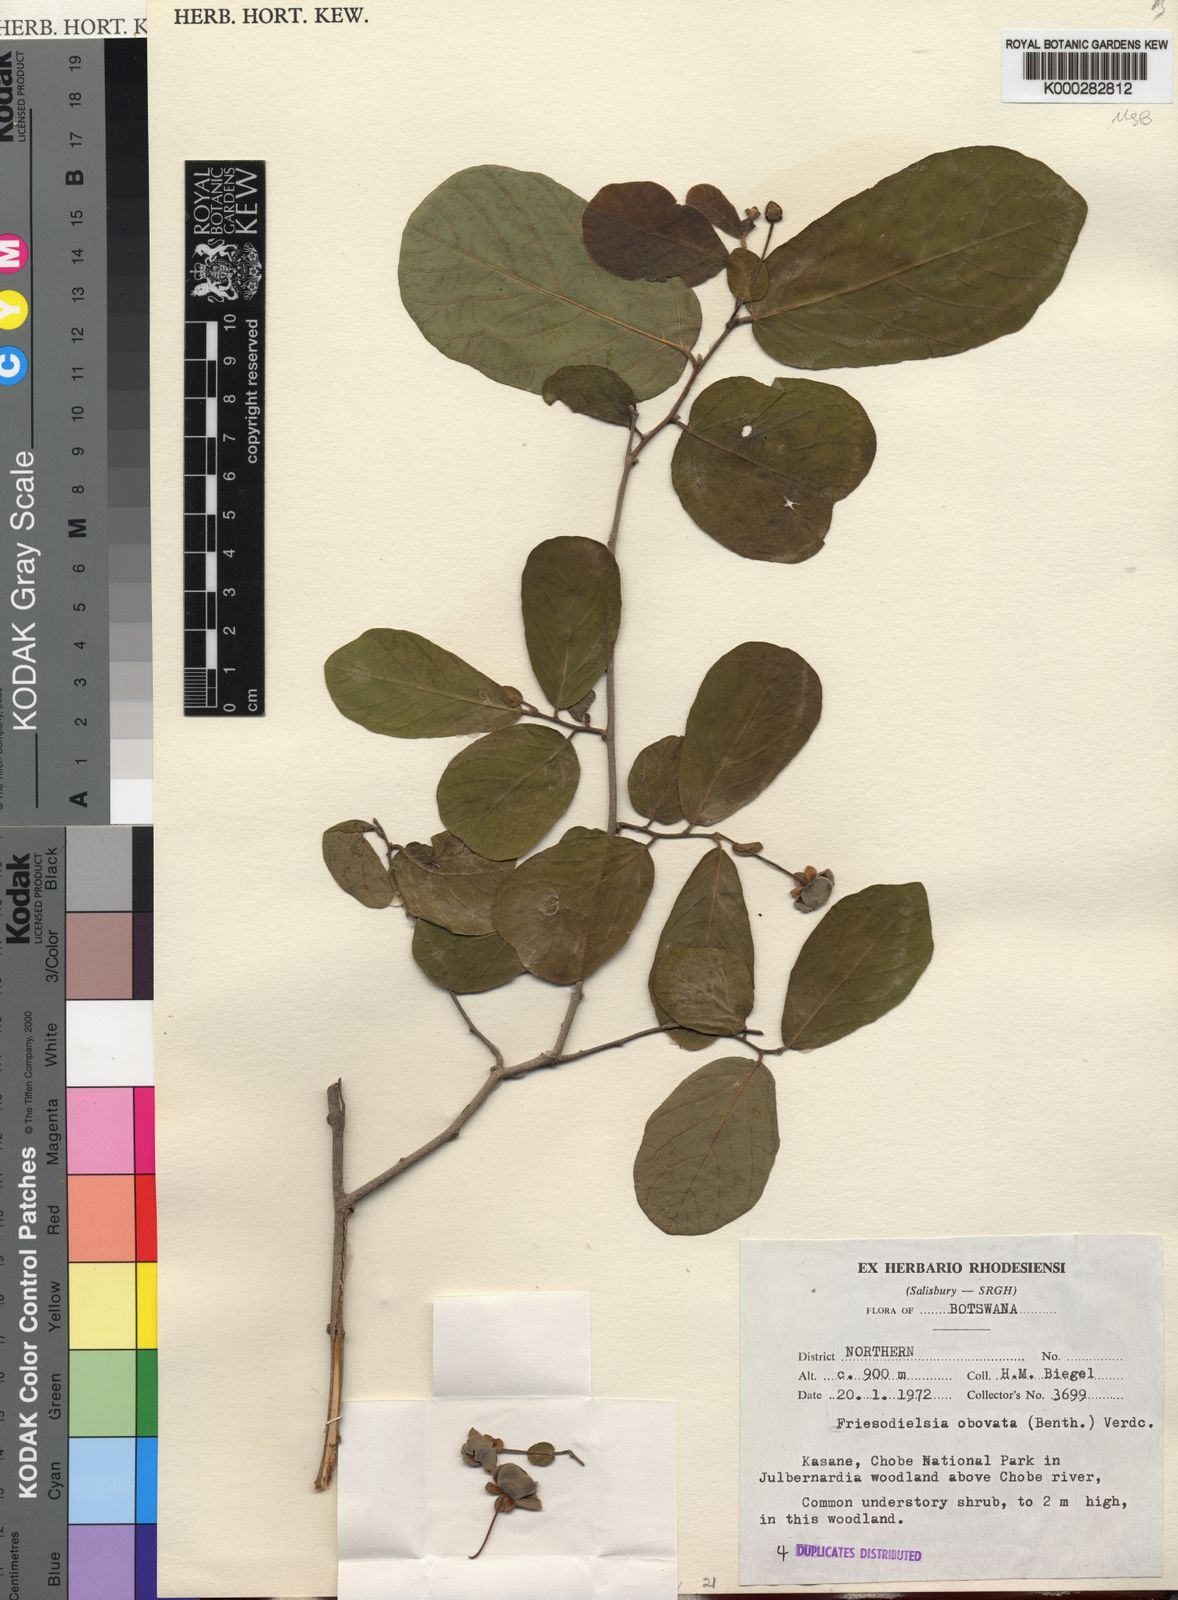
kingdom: Plantae
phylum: Tracheophyta
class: Magnoliopsida
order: Magnoliales
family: Annonaceae
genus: Friesodielsia
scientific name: Friesodielsia obovata
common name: Monkey fingers
